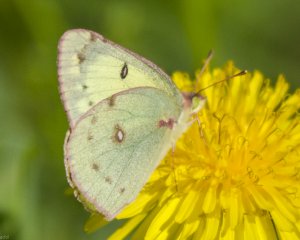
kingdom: Animalia
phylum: Arthropoda
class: Insecta
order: Lepidoptera
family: Pieridae
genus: Colias
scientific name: Colias philodice
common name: Clouded Sulphur
